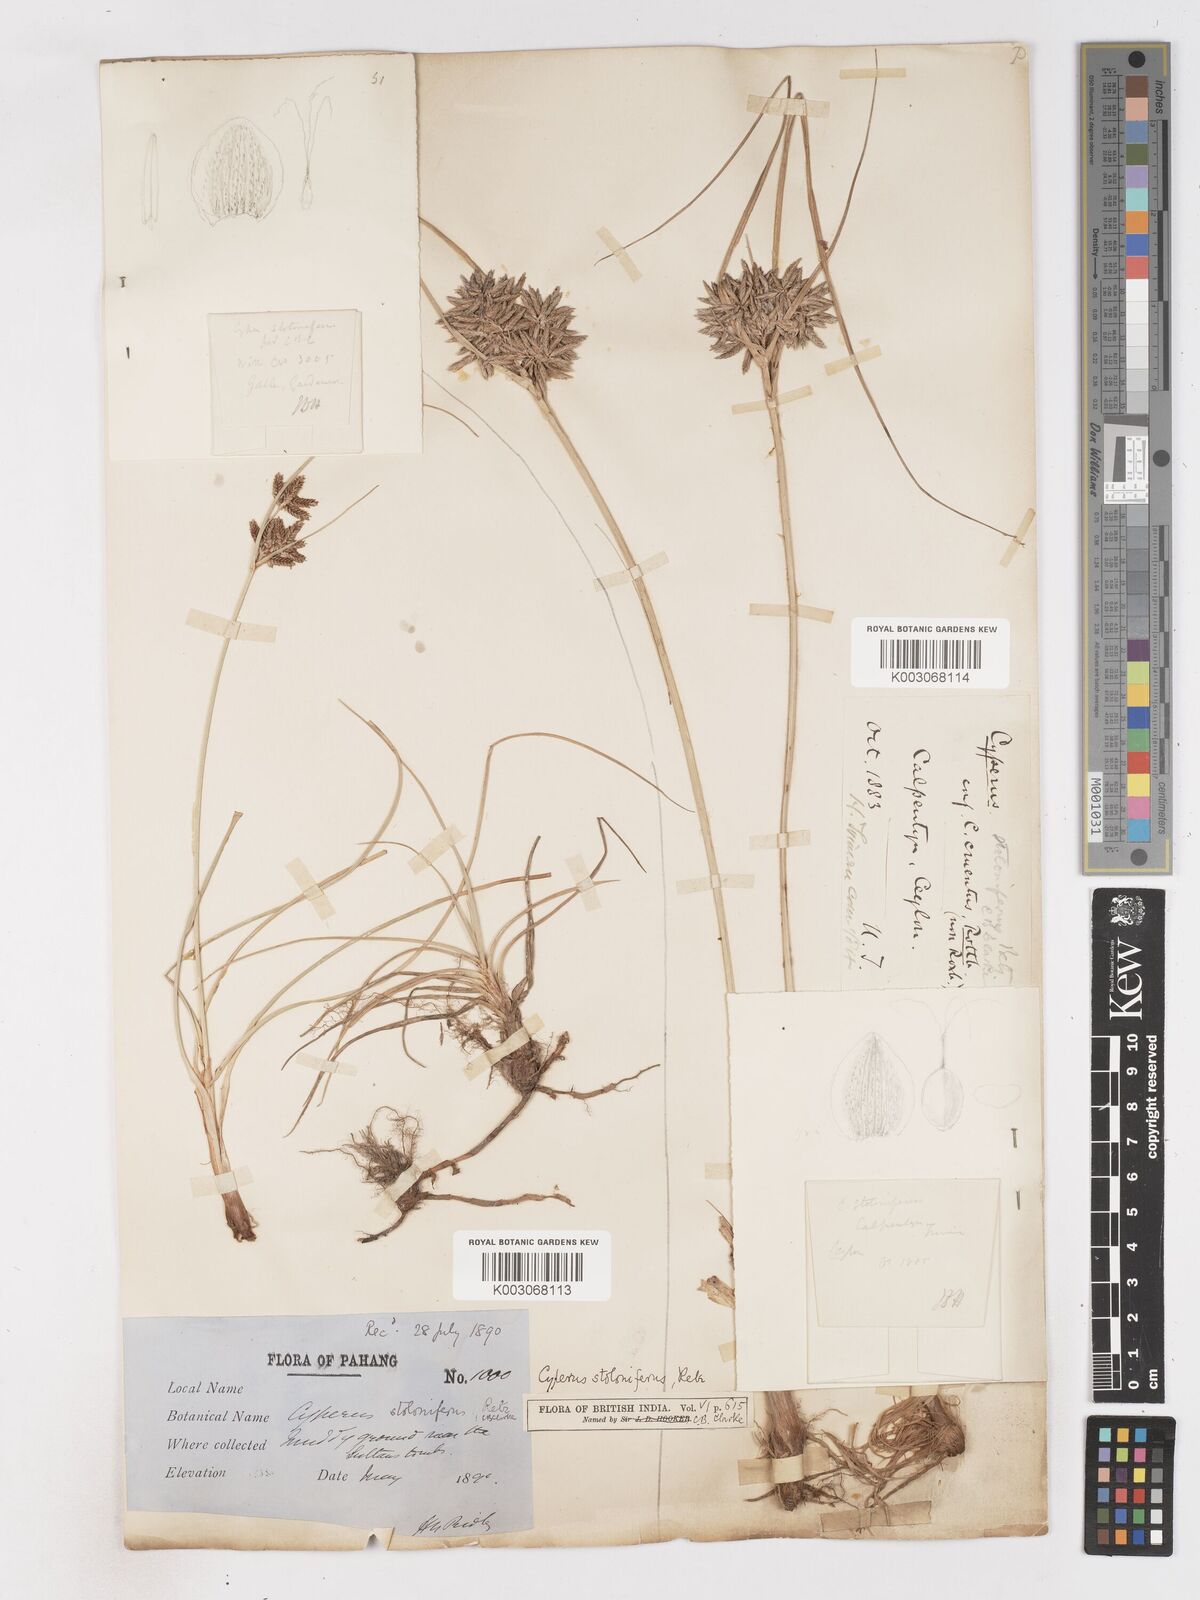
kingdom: Plantae
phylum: Tracheophyta
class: Liliopsida
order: Poales
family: Cyperaceae
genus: Cyperus
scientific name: Cyperus bulbosus
